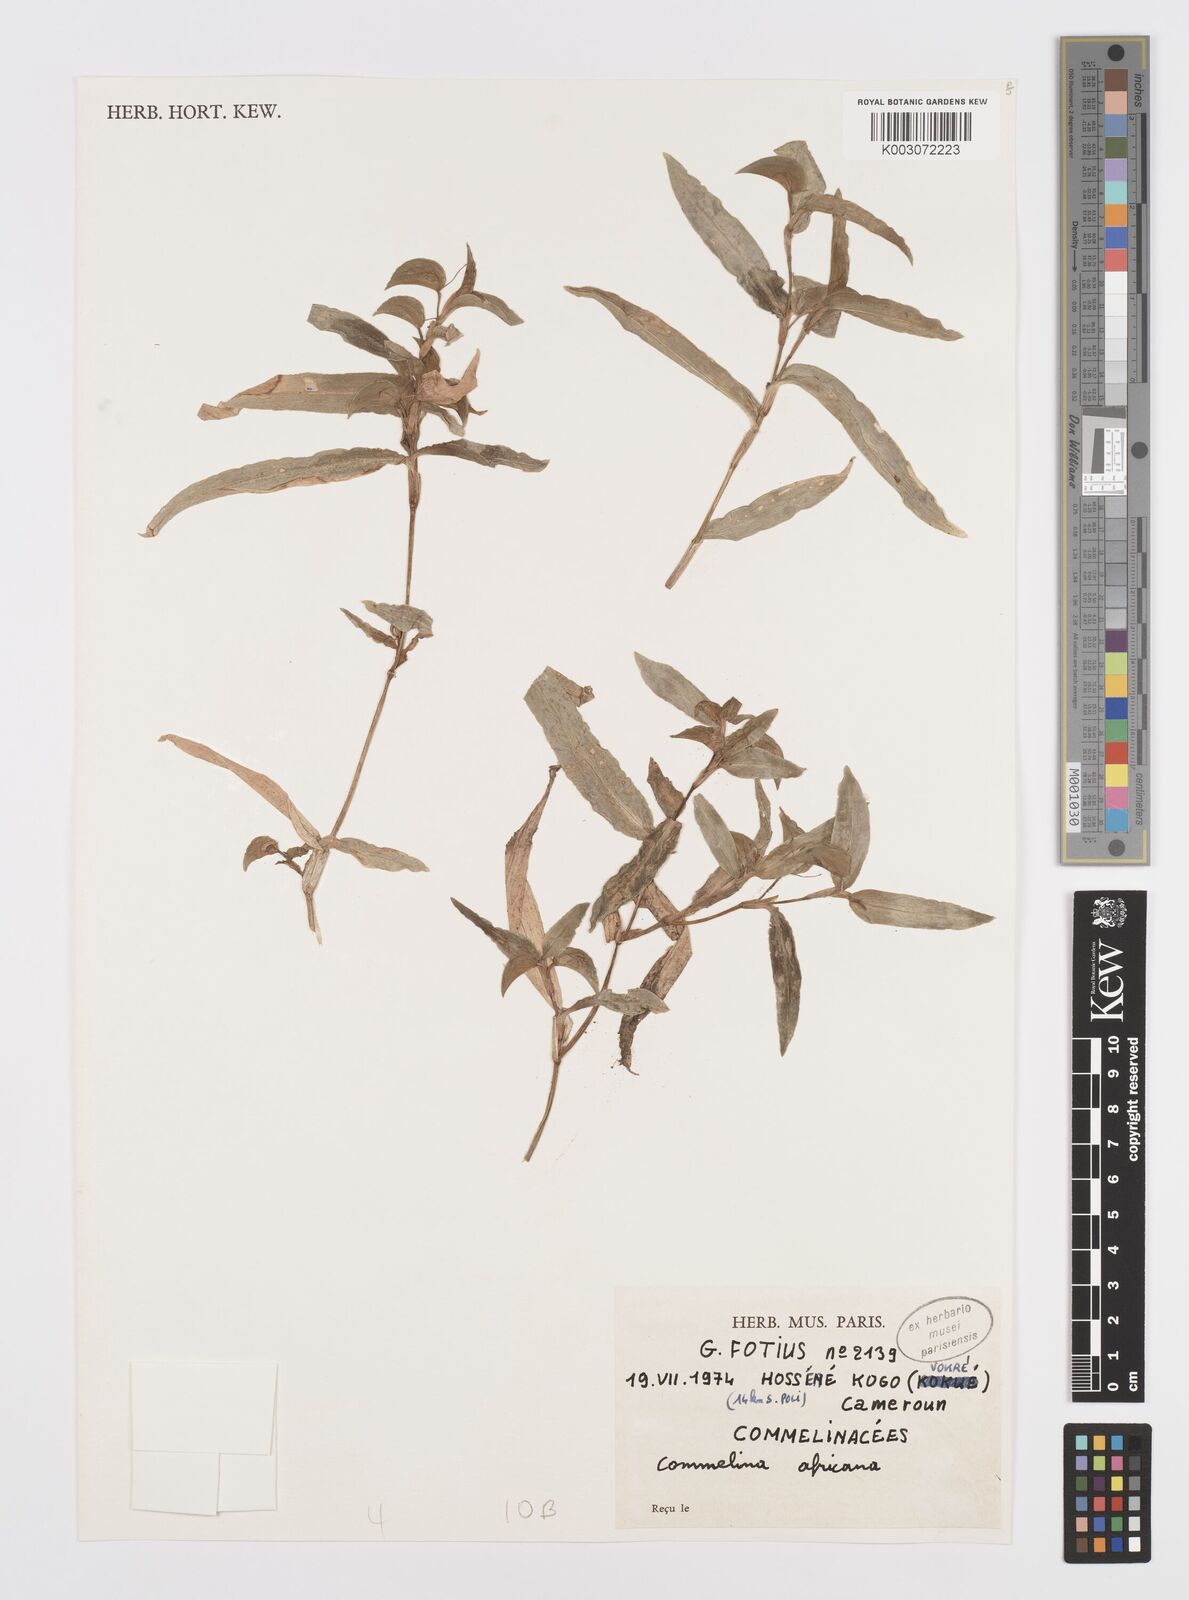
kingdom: Plantae
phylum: Tracheophyta
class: Liliopsida
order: Commelinales
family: Commelinaceae
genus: Commelina
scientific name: Commelina africana
